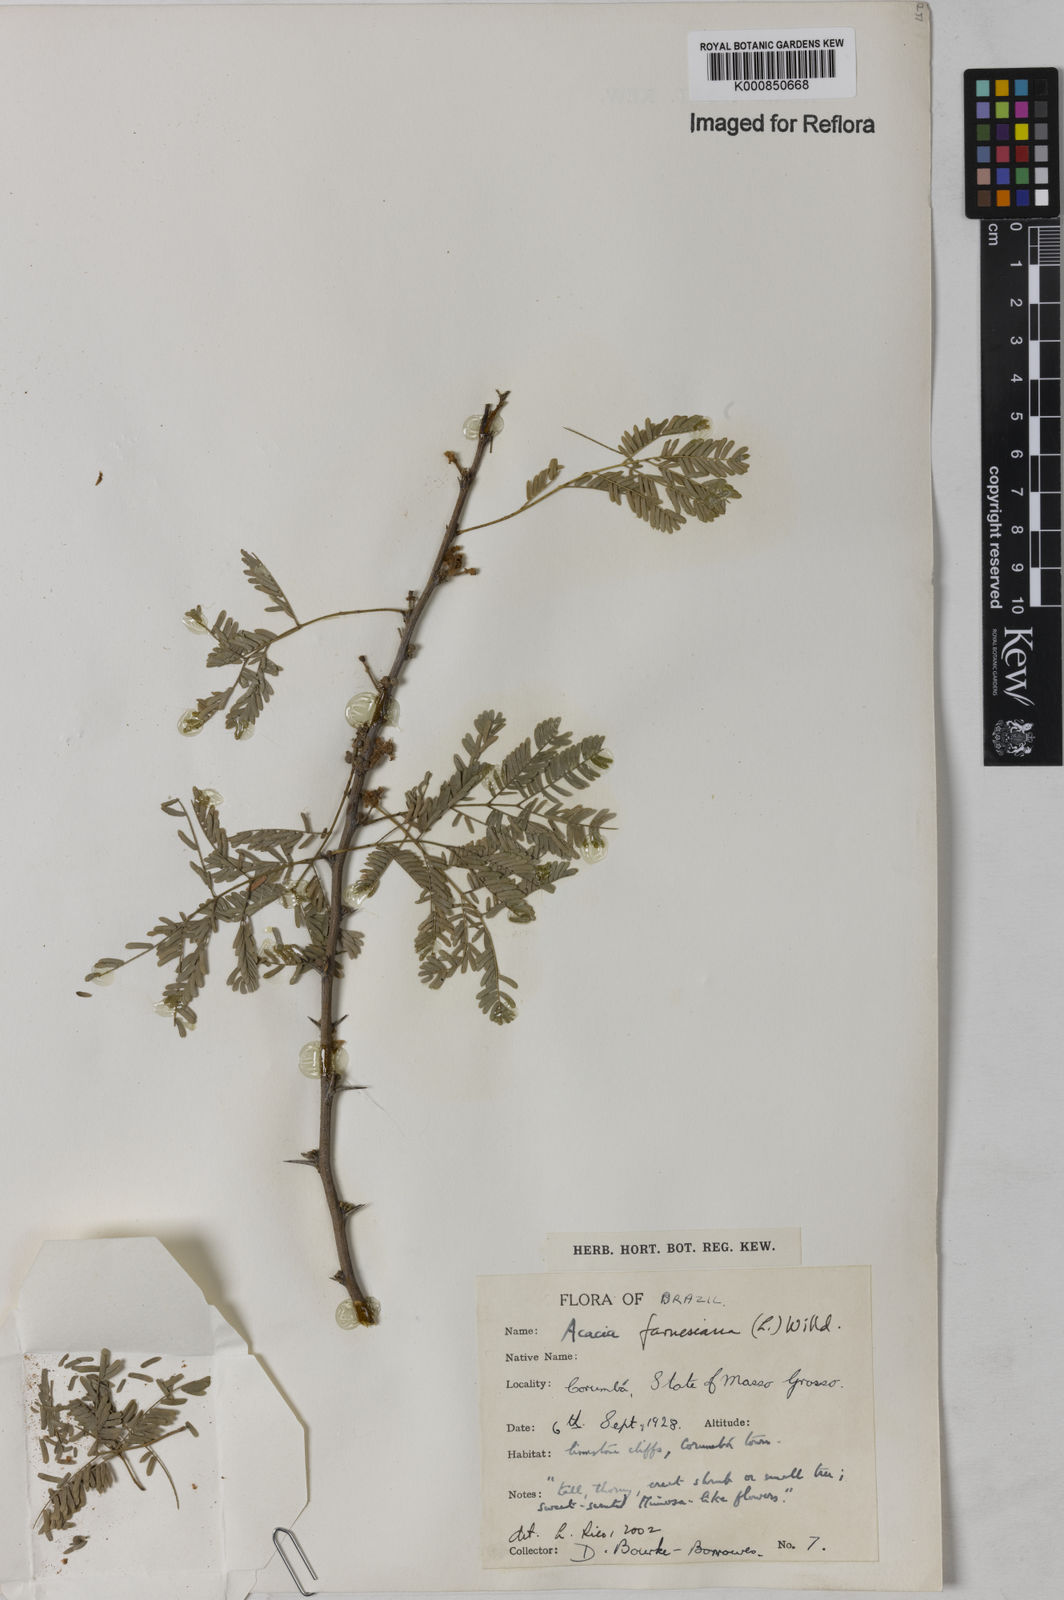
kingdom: Plantae
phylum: Tracheophyta
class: Magnoliopsida
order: Fabales
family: Fabaceae
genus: Vachellia
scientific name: Vachellia farnesiana
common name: Sweet acacia
